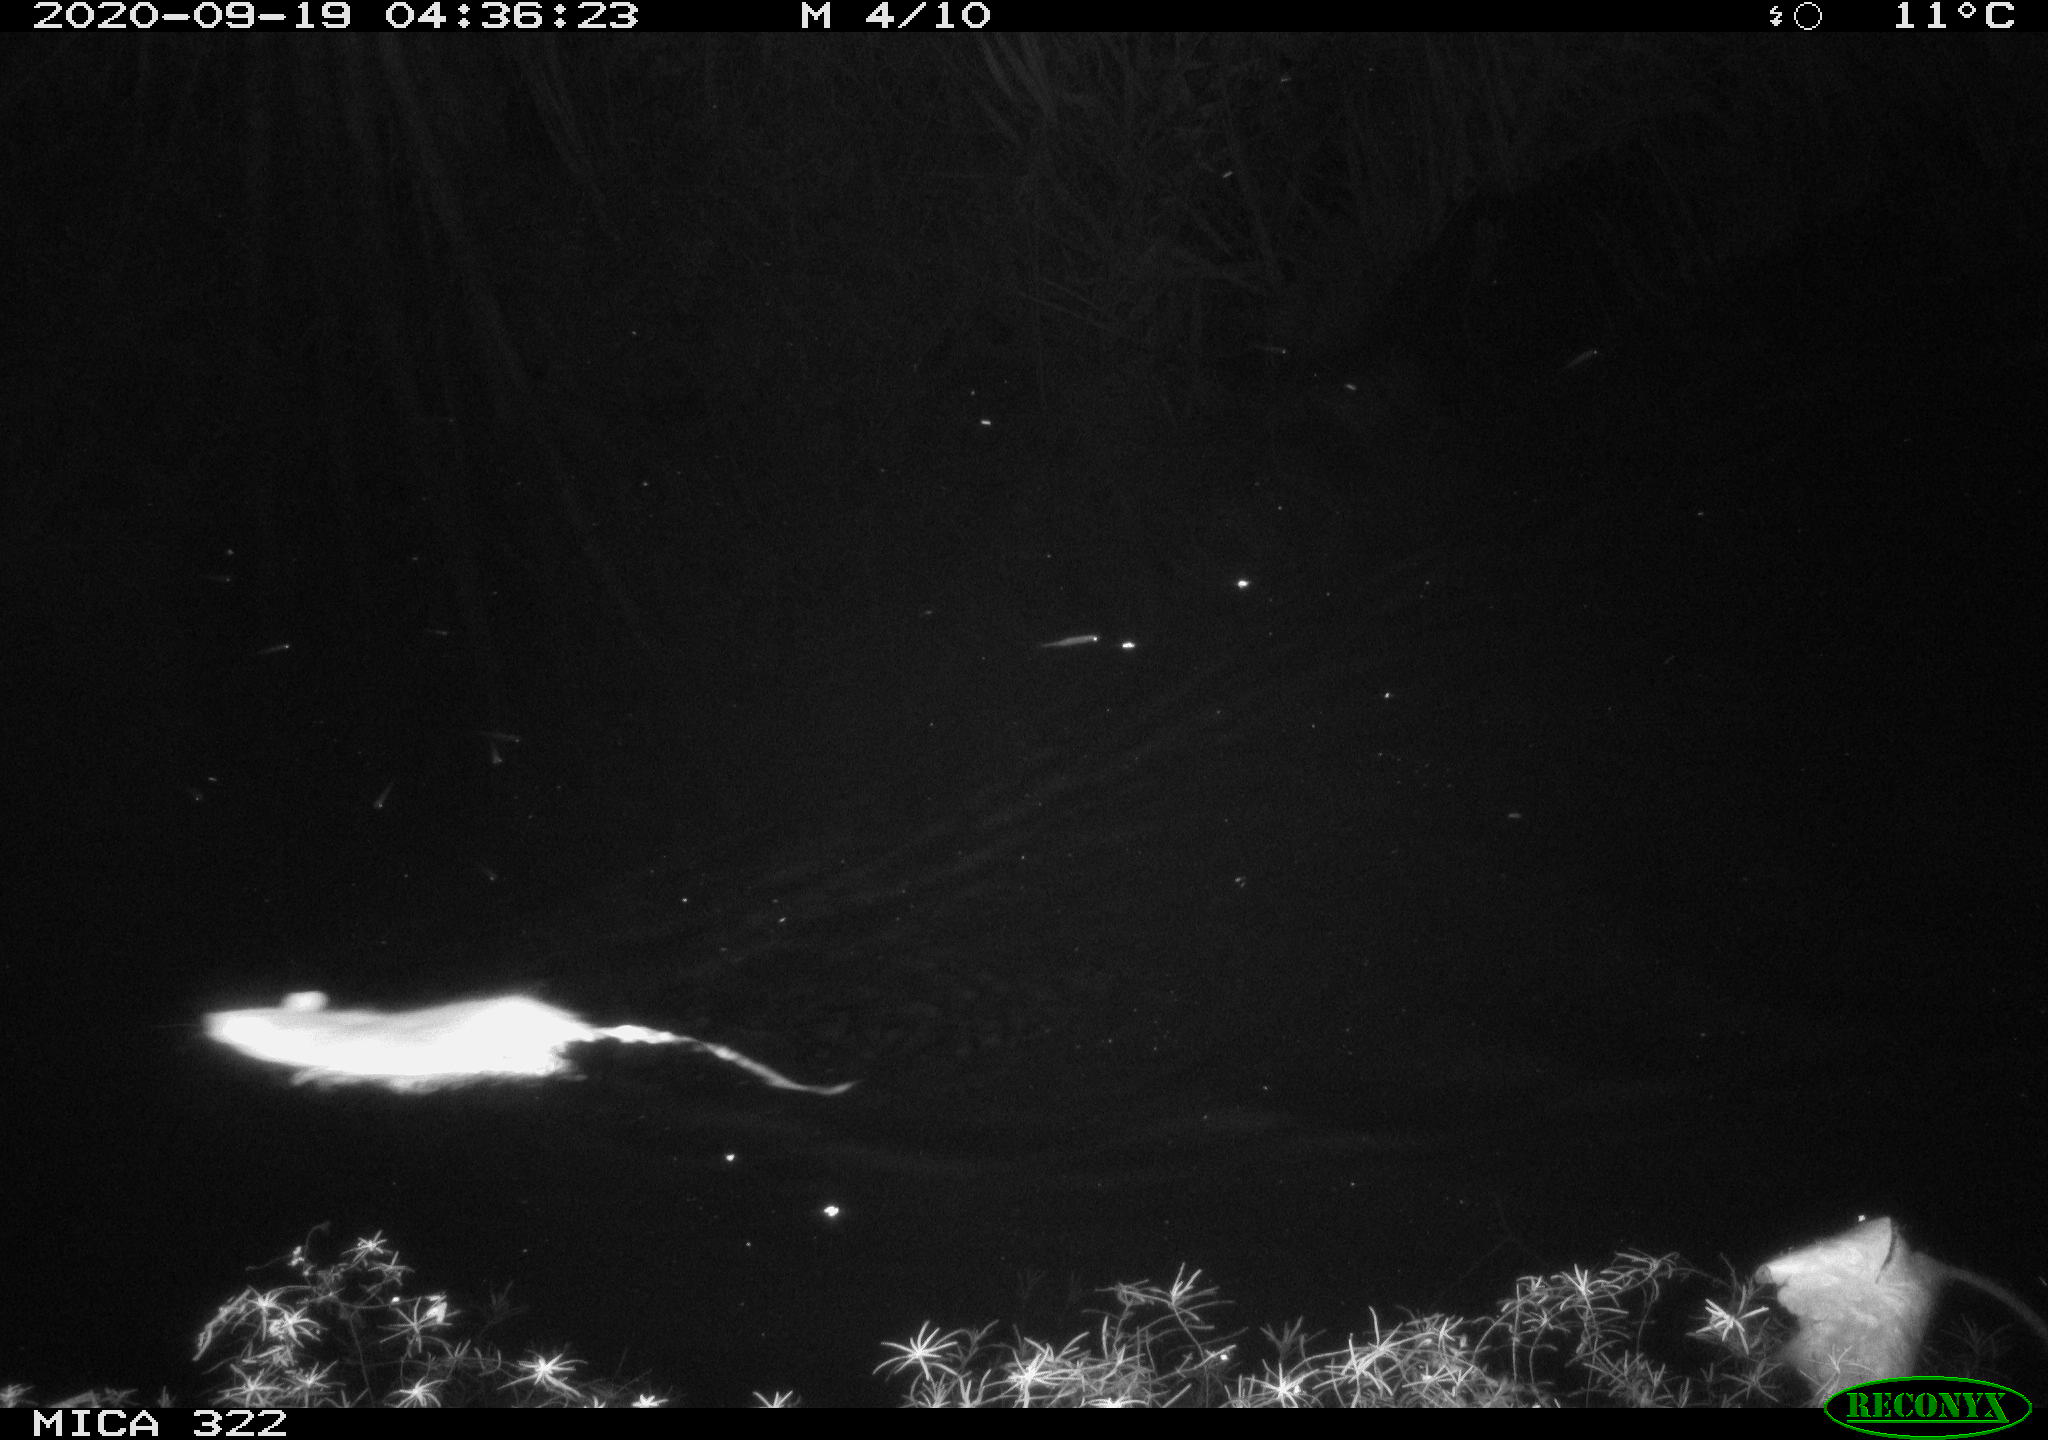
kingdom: Animalia
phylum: Chordata
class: Mammalia
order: Rodentia
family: Muridae
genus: Rattus
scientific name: Rattus norvegicus
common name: Brown rat
